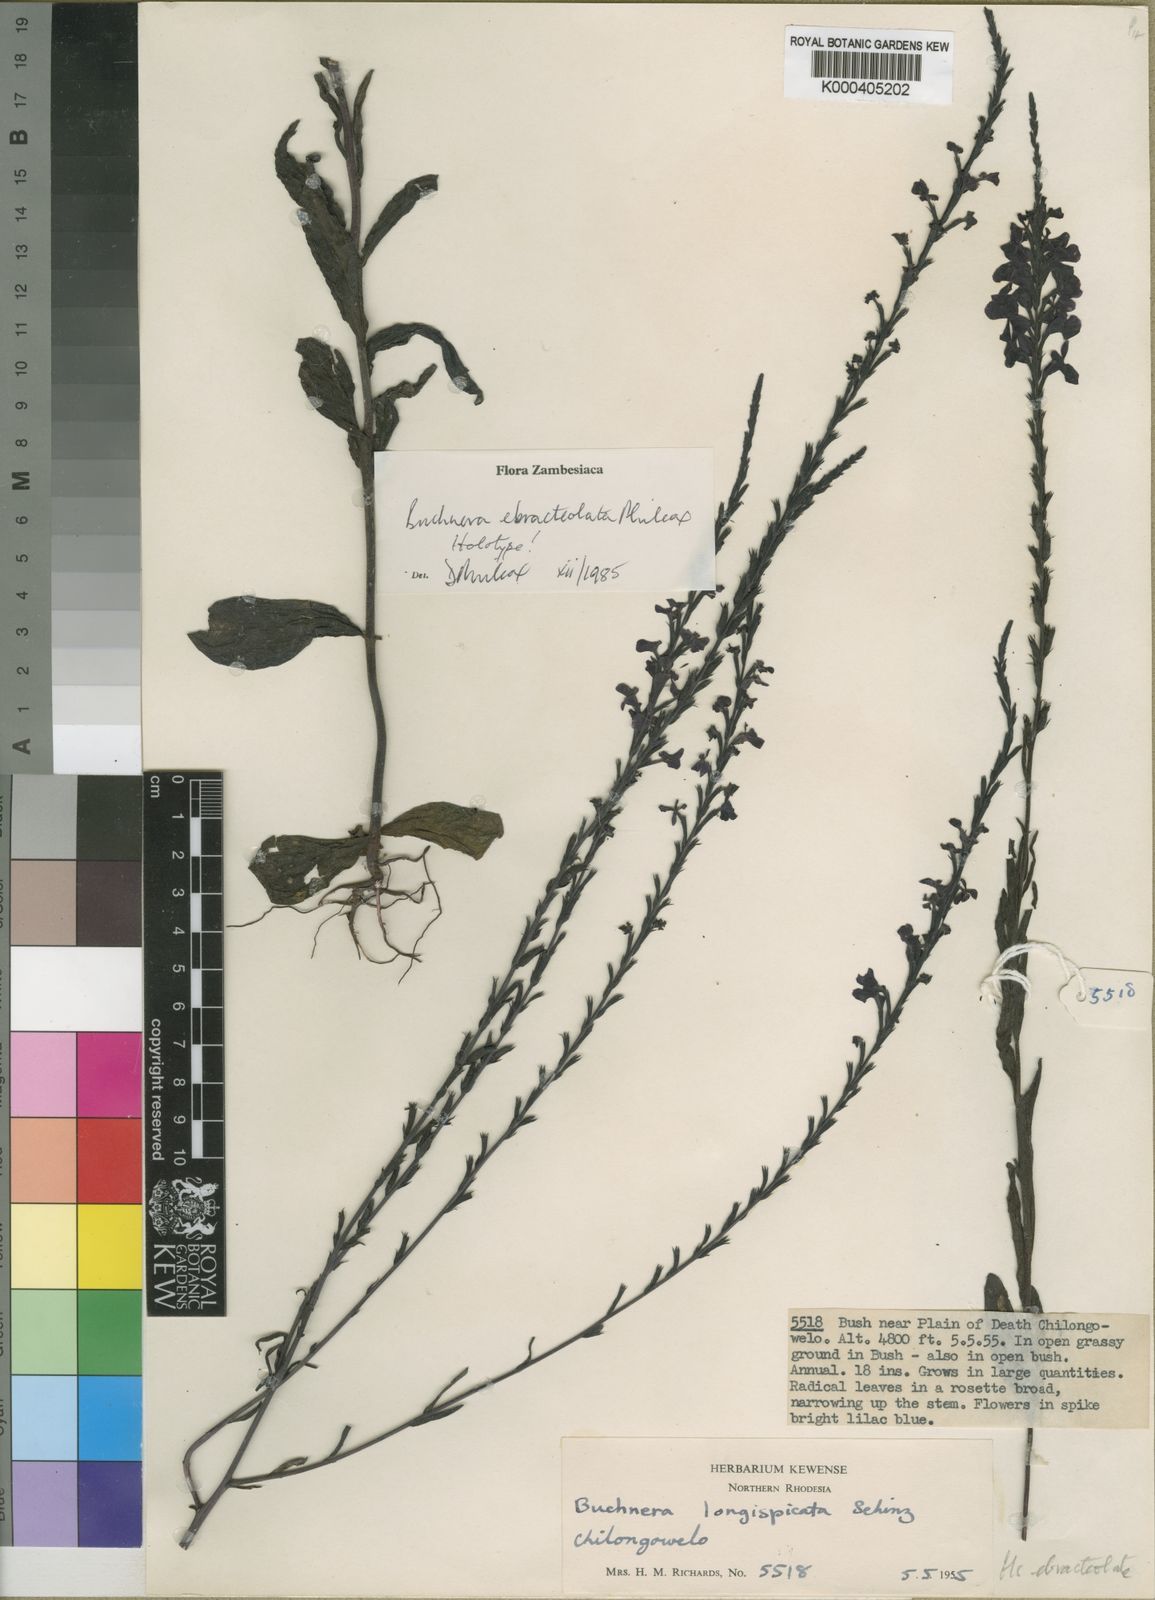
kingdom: Plantae
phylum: Tracheophyta
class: Magnoliopsida
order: Lamiales
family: Orobanchaceae
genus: Buchnera
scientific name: Buchnera ebracteolata
